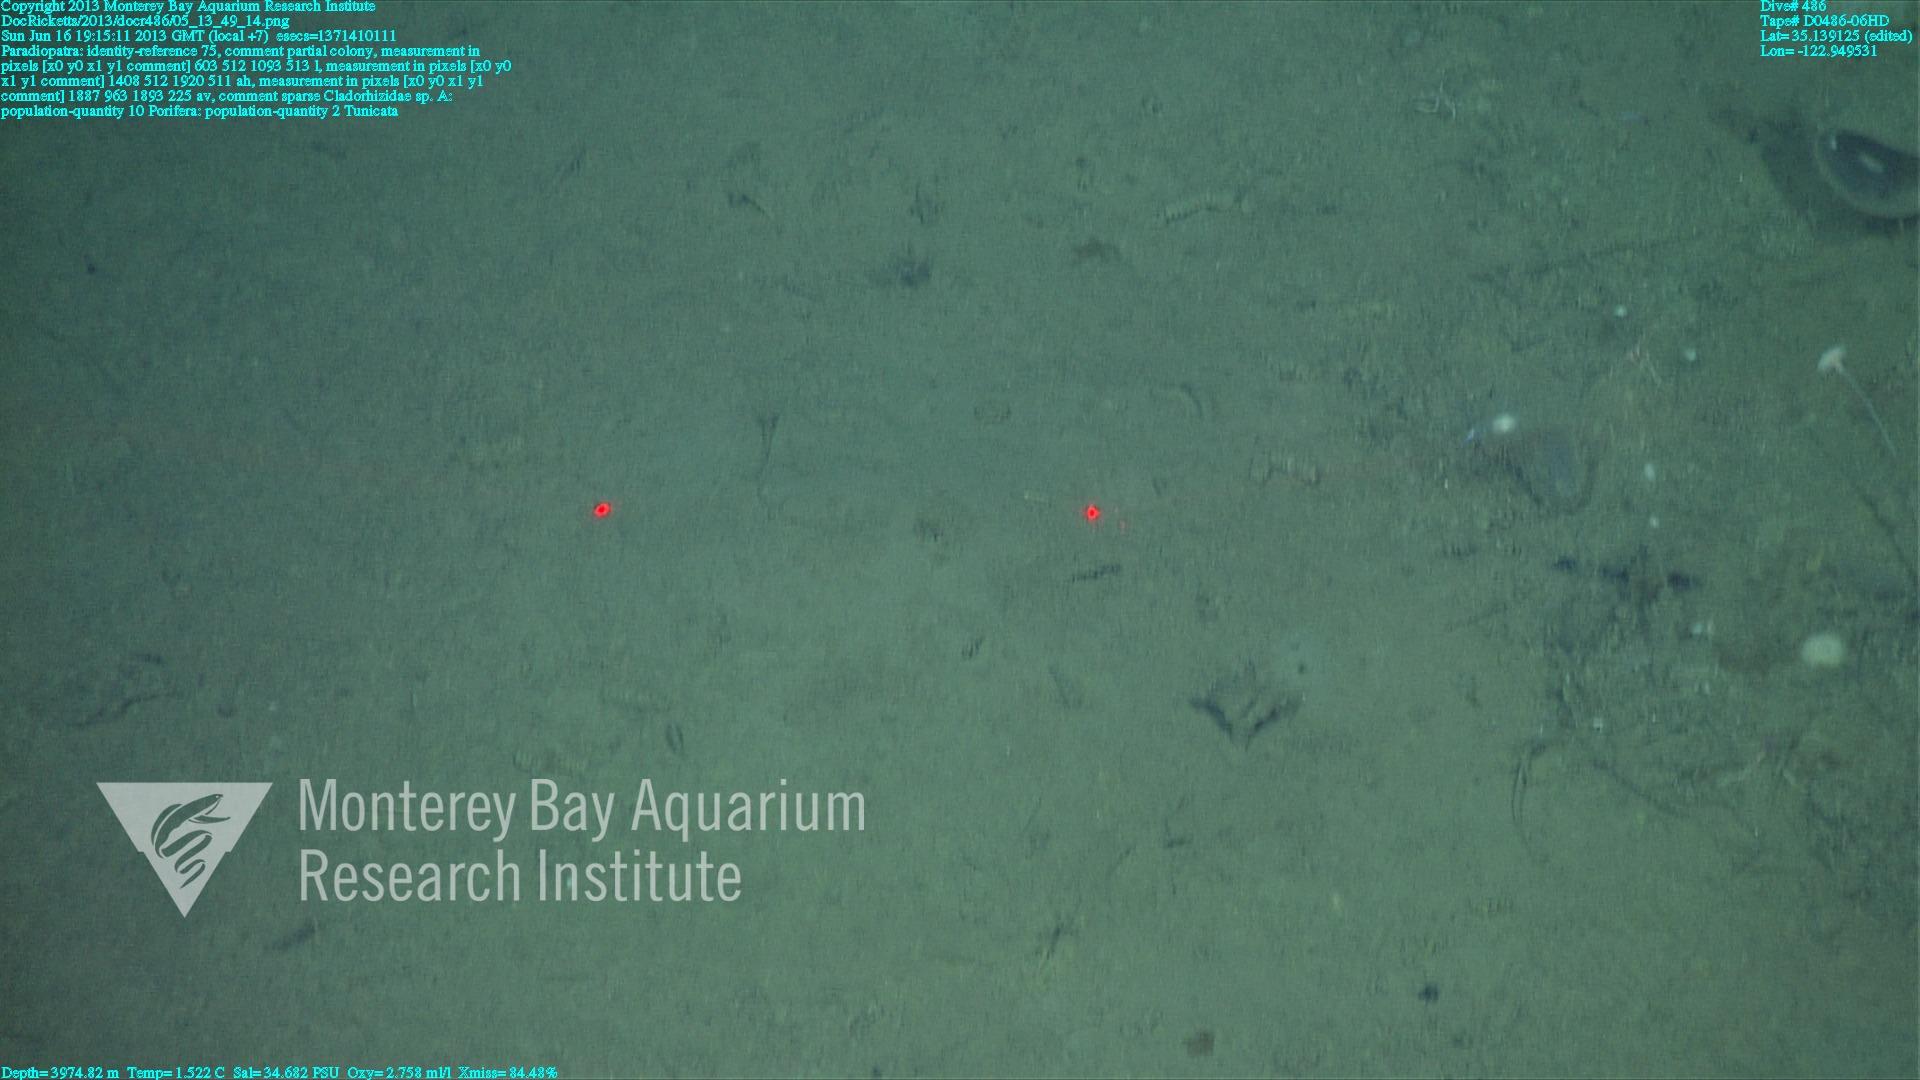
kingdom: Animalia
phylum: Porifera
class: Demospongiae
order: Poecilosclerida
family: Cladorhizidae
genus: Cladorhiza
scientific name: Cladorhiza
